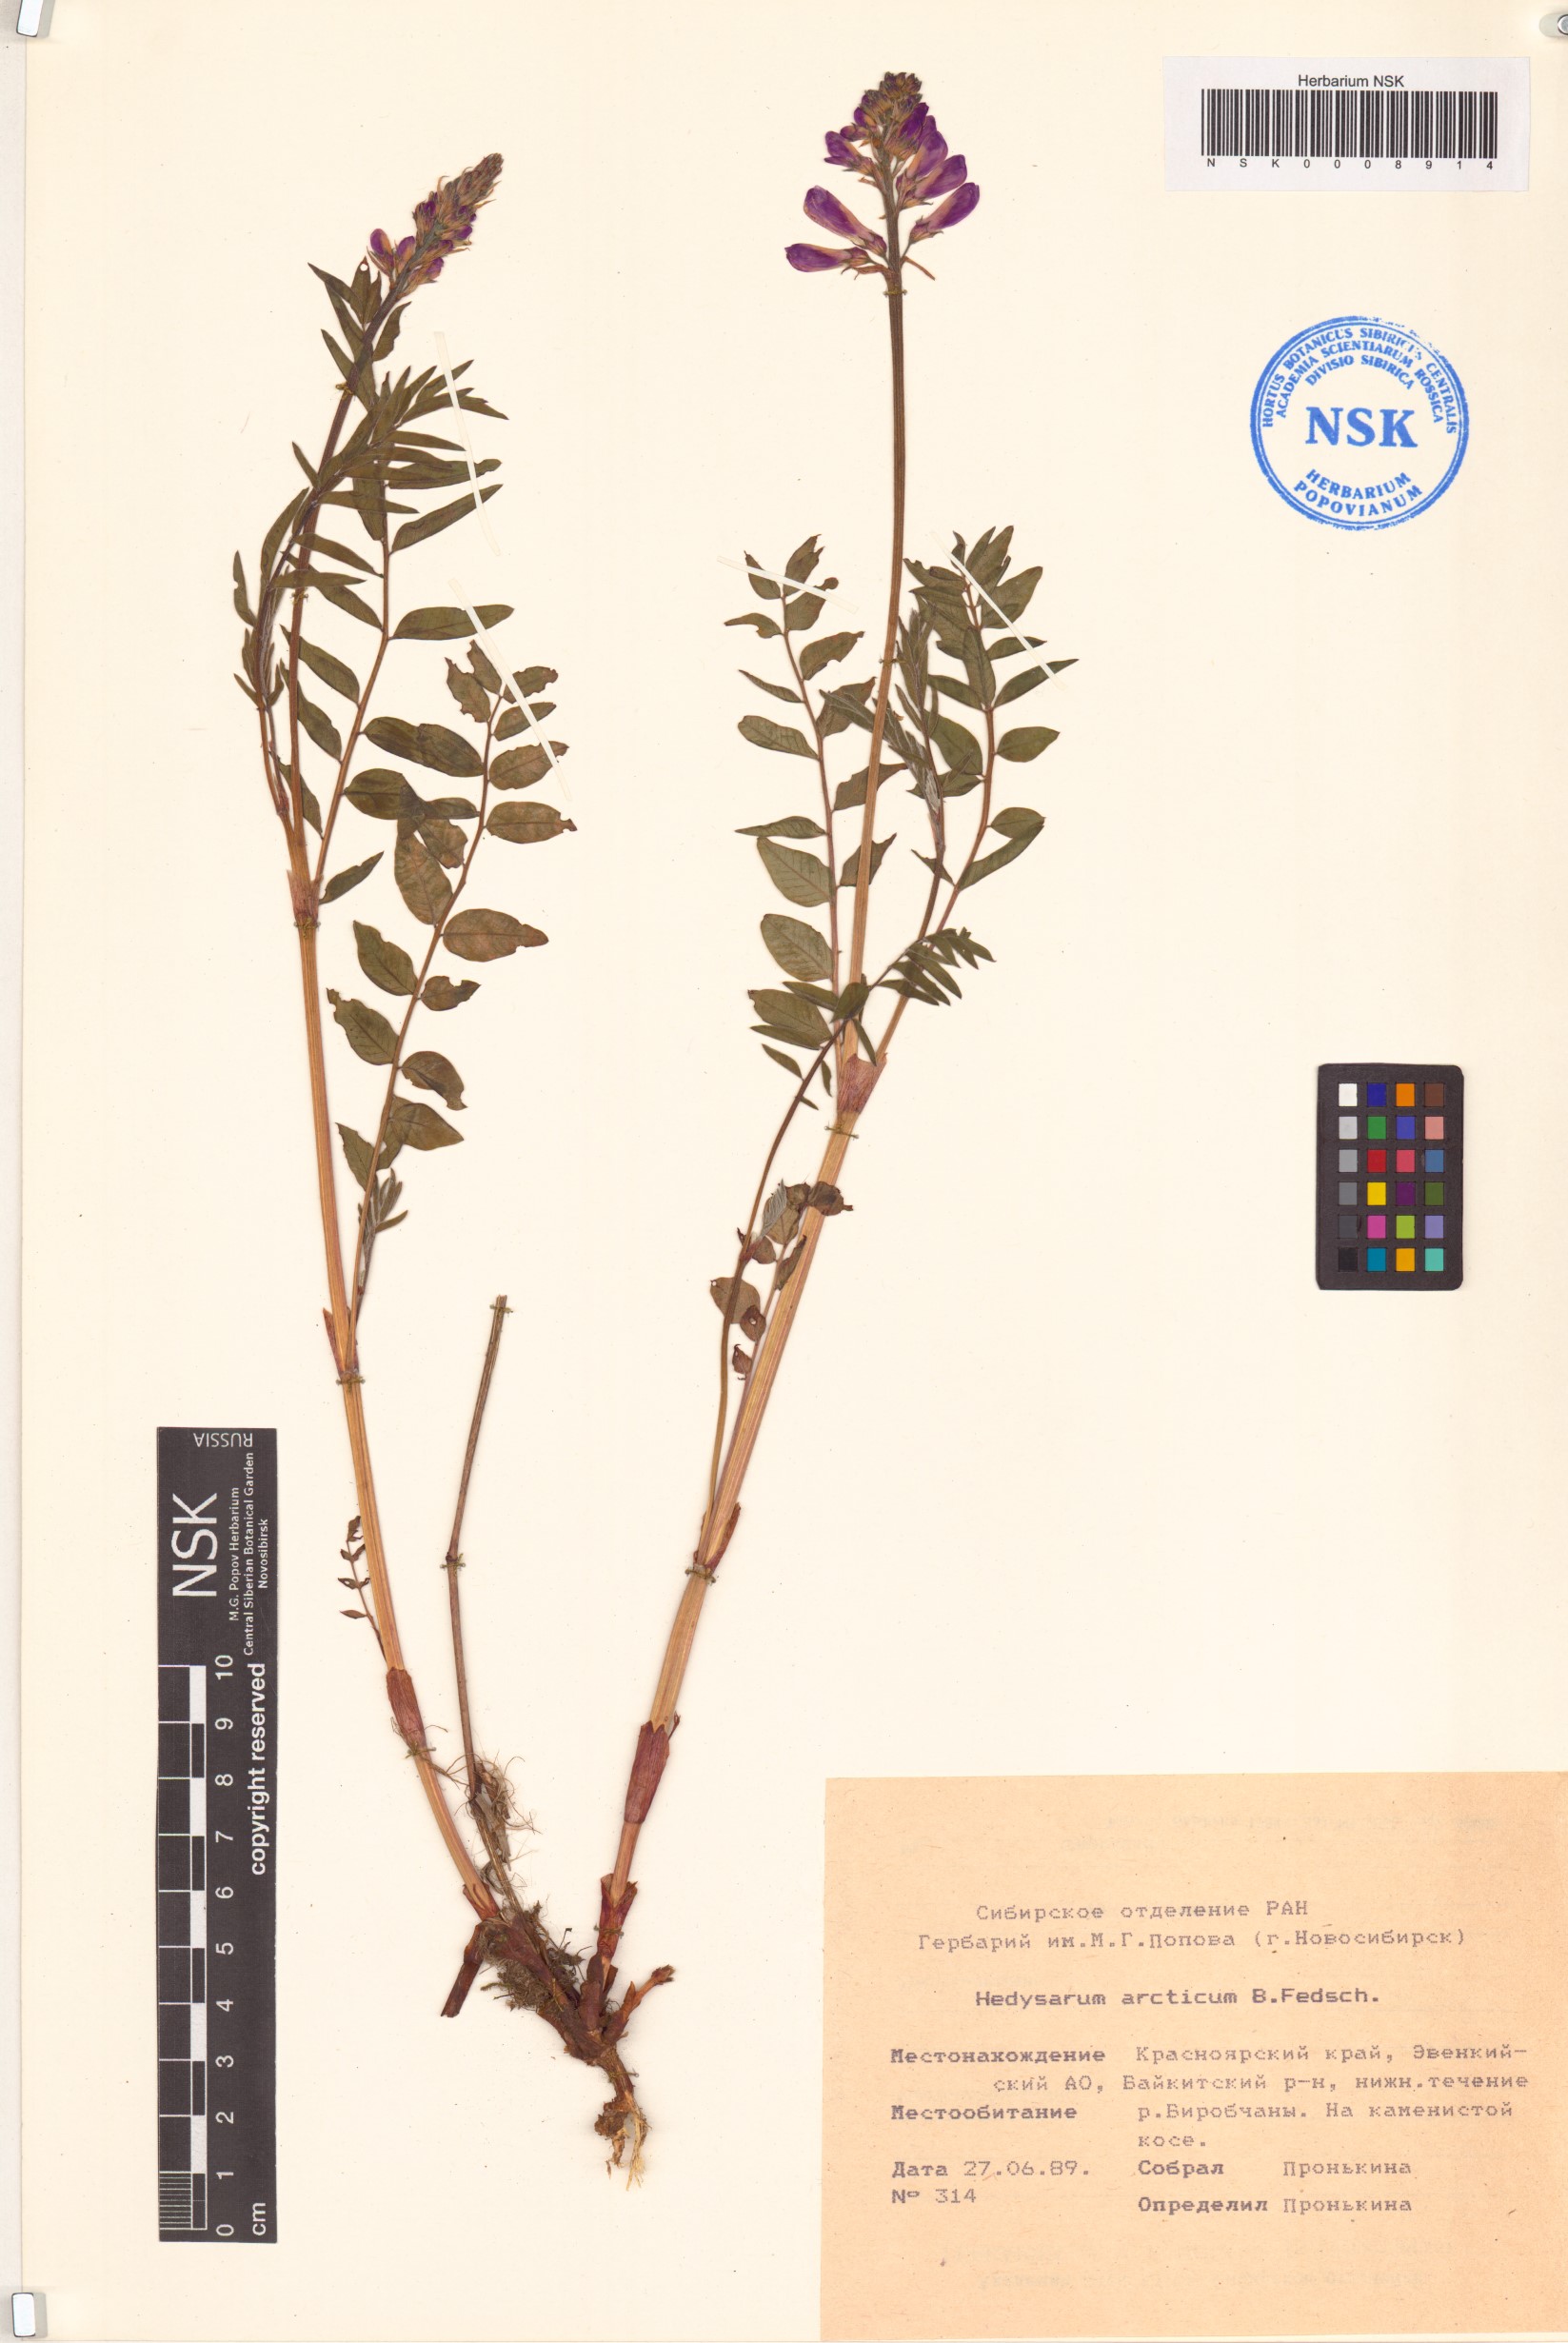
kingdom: Plantae
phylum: Tracheophyta
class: Magnoliopsida
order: Fabales
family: Fabaceae
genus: Hedysarum
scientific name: Hedysarum hedysaroides
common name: Alpine french-honeysuckle
